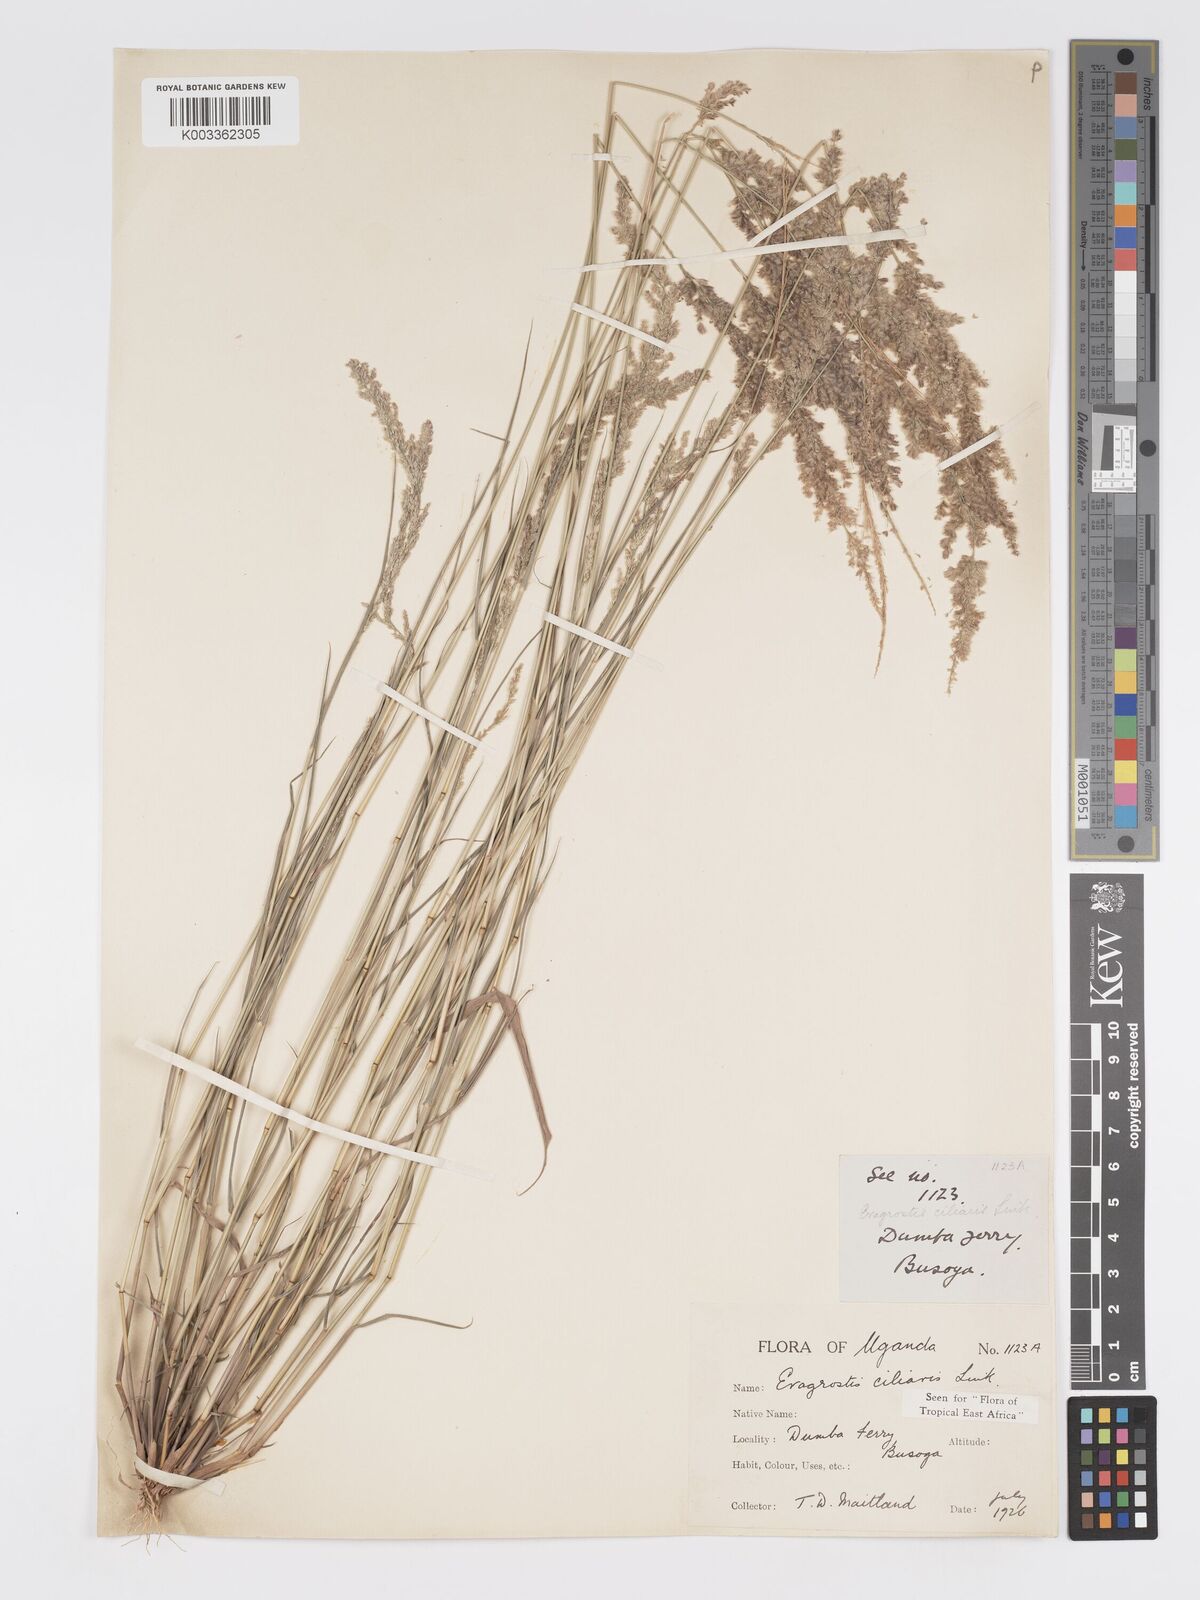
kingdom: Plantae
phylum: Tracheophyta
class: Liliopsida
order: Poales
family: Poaceae
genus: Eragrostis
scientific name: Eragrostis ciliaris
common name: Gophertail lovegrass
